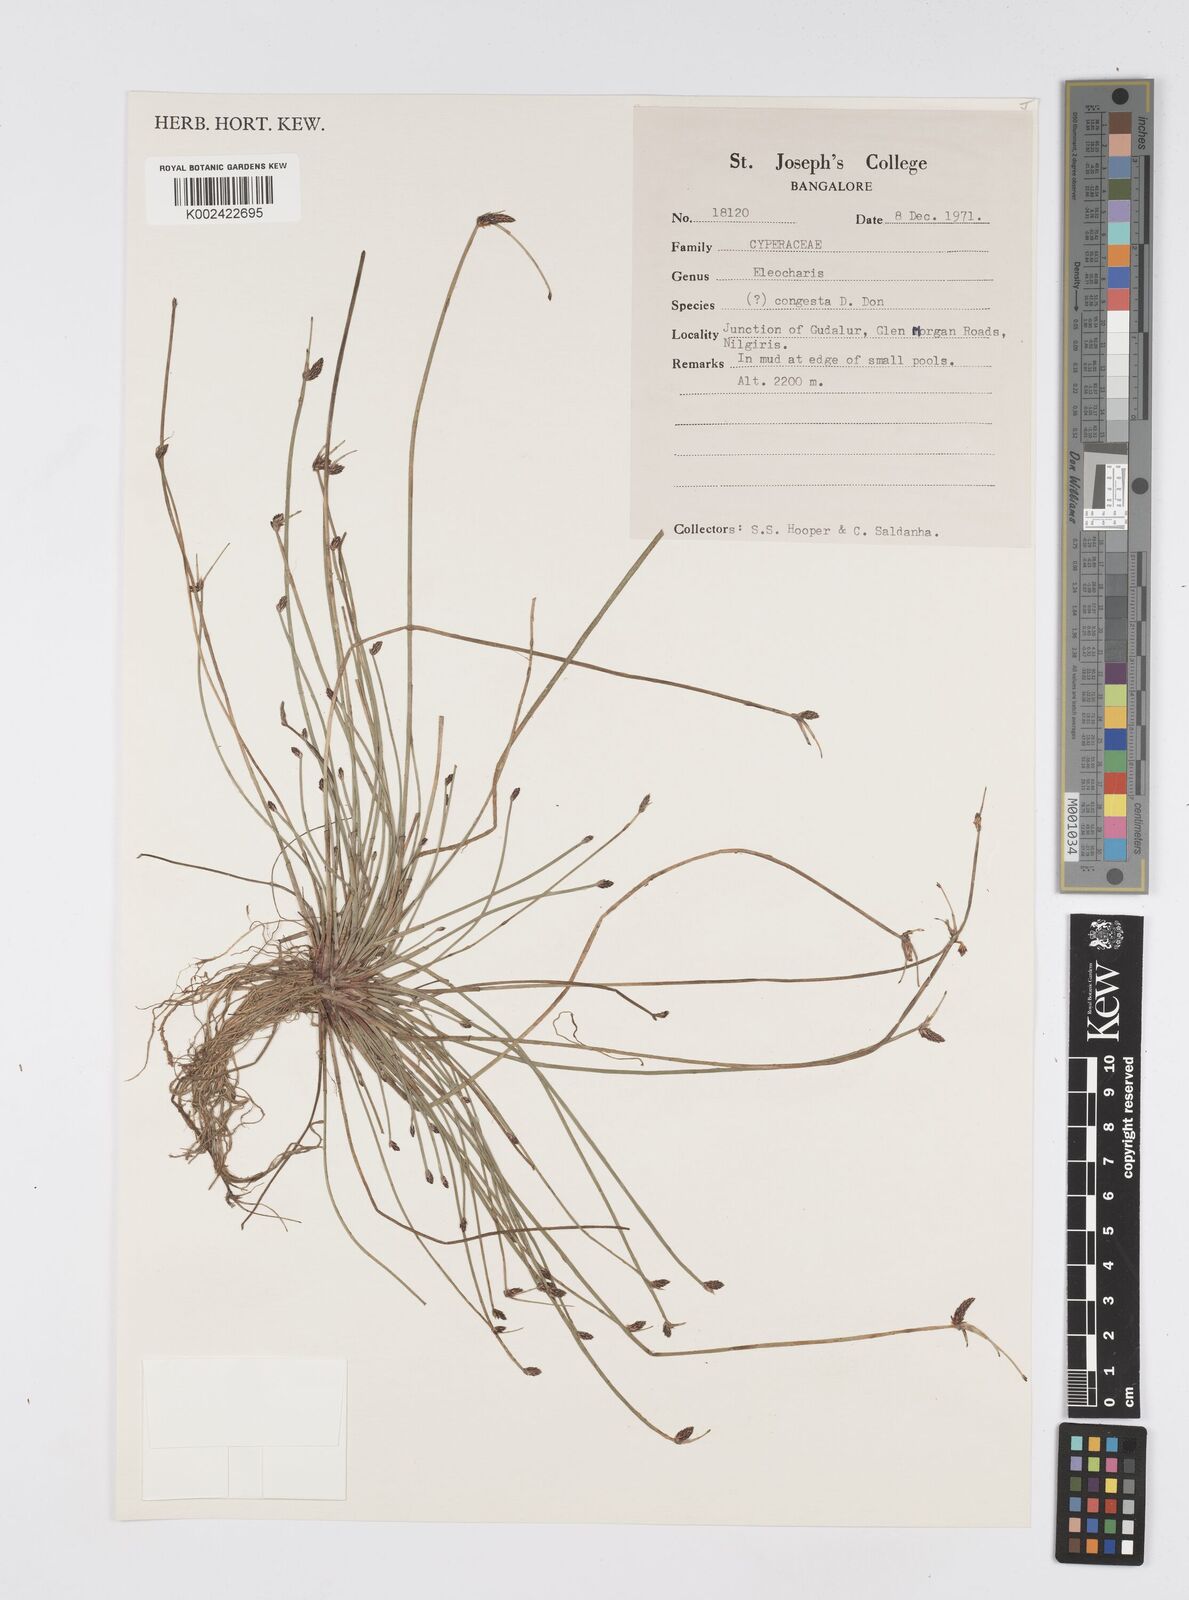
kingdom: Plantae
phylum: Tracheophyta
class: Liliopsida
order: Poales
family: Cyperaceae
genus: Eleocharis
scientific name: Eleocharis congesta
